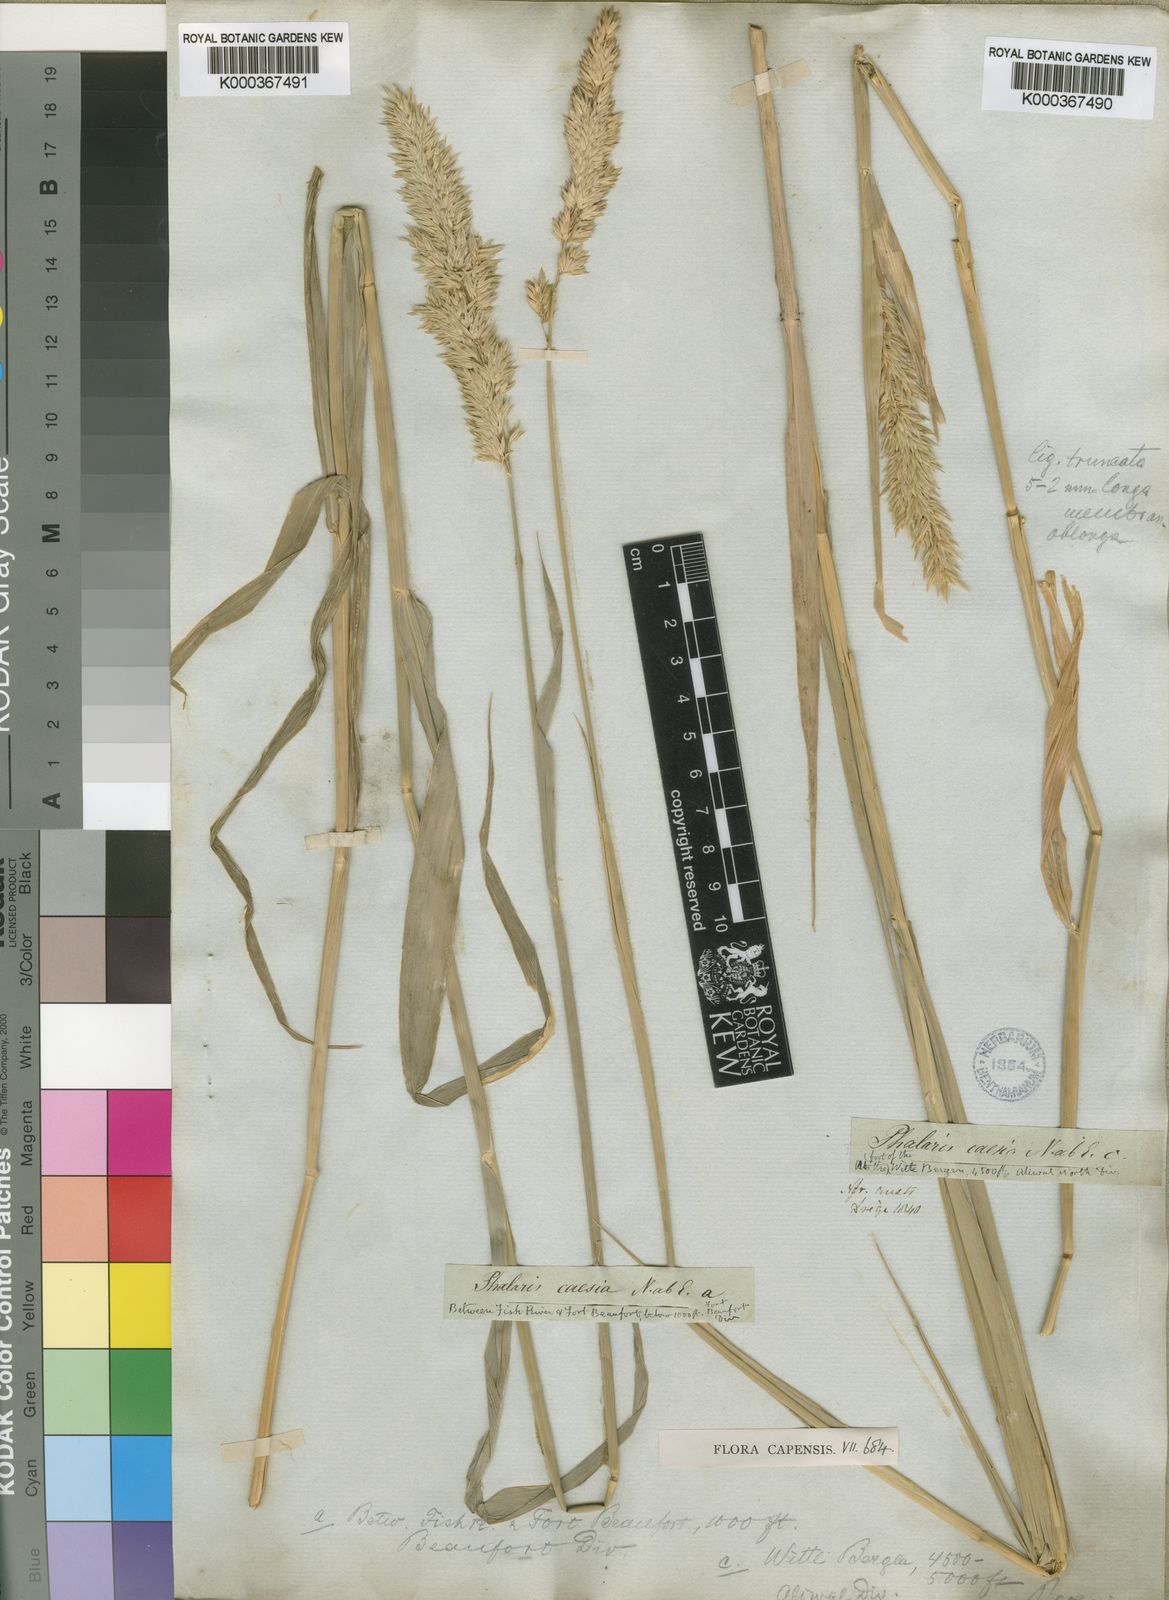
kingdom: Plantae
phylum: Tracheophyta
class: Liliopsida
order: Poales
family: Poaceae
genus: Phalaris
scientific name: Phalaris arundinacea
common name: Reed canary-grass
